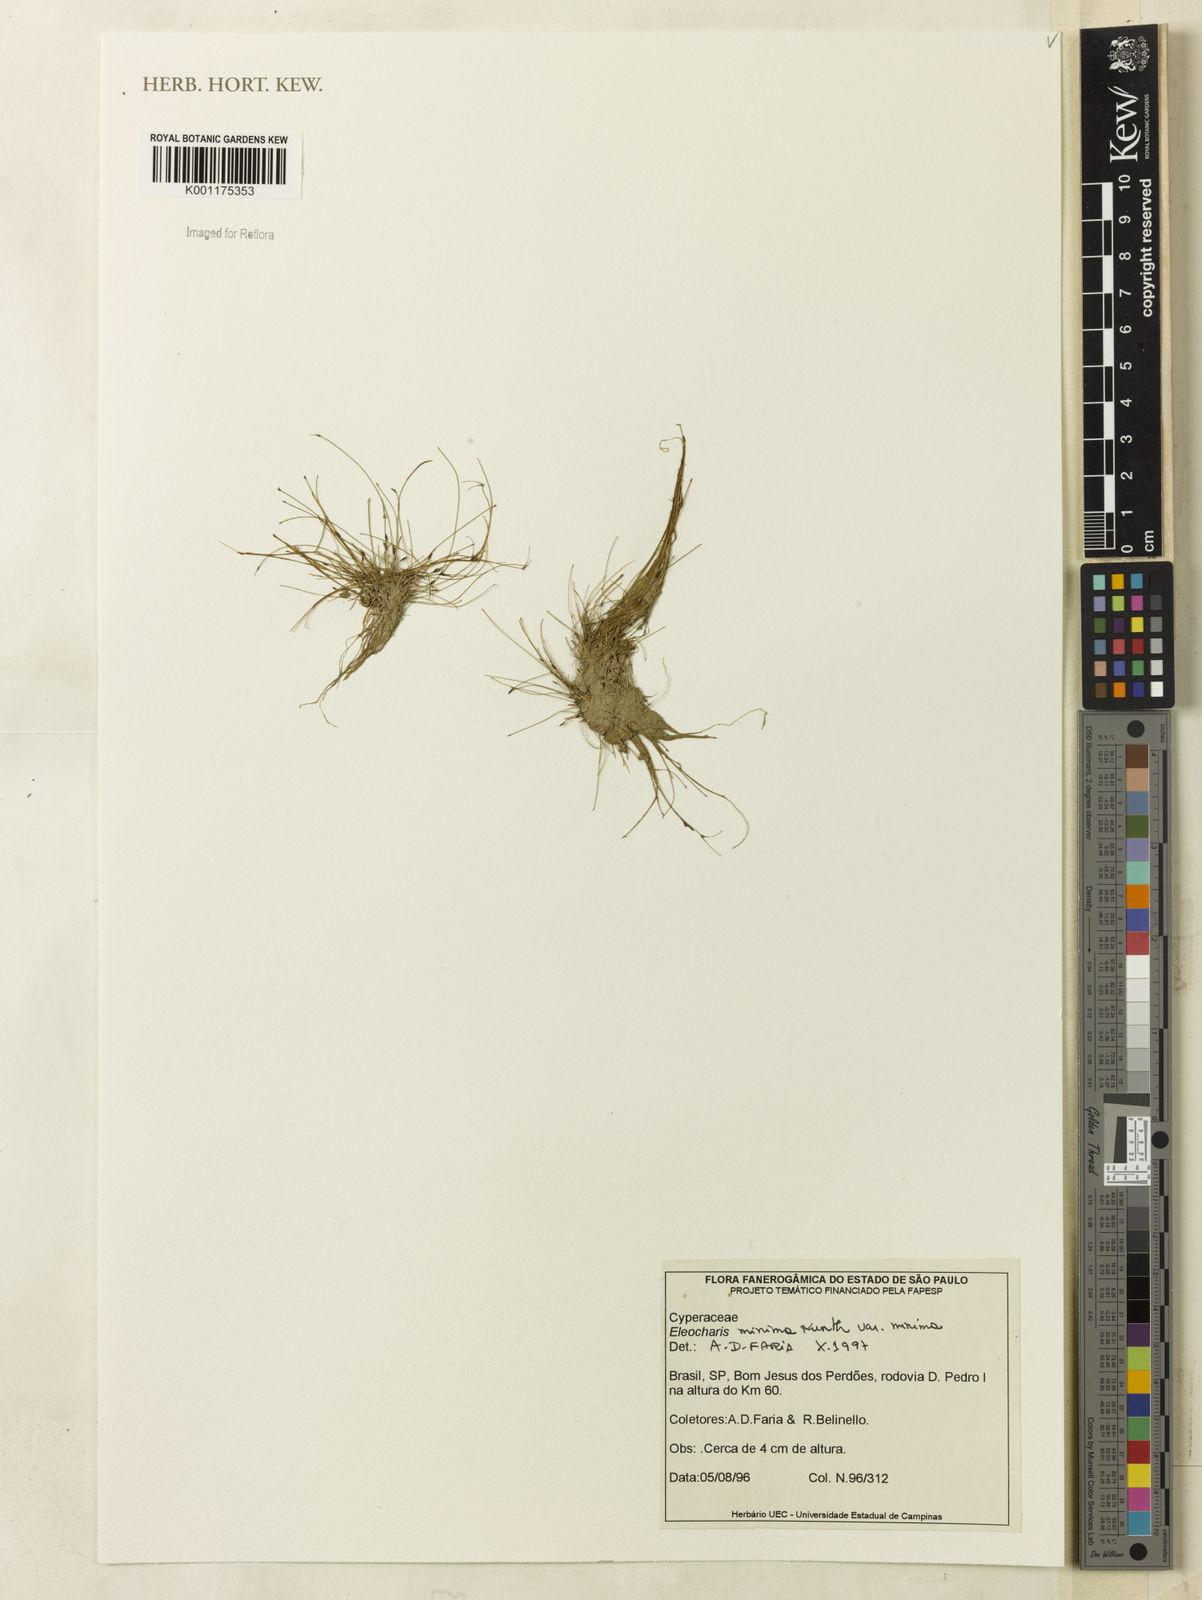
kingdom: Plantae
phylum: Tracheophyta
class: Liliopsida
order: Poales
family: Cyperaceae
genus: Eleocharis
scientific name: Eleocharis minima
